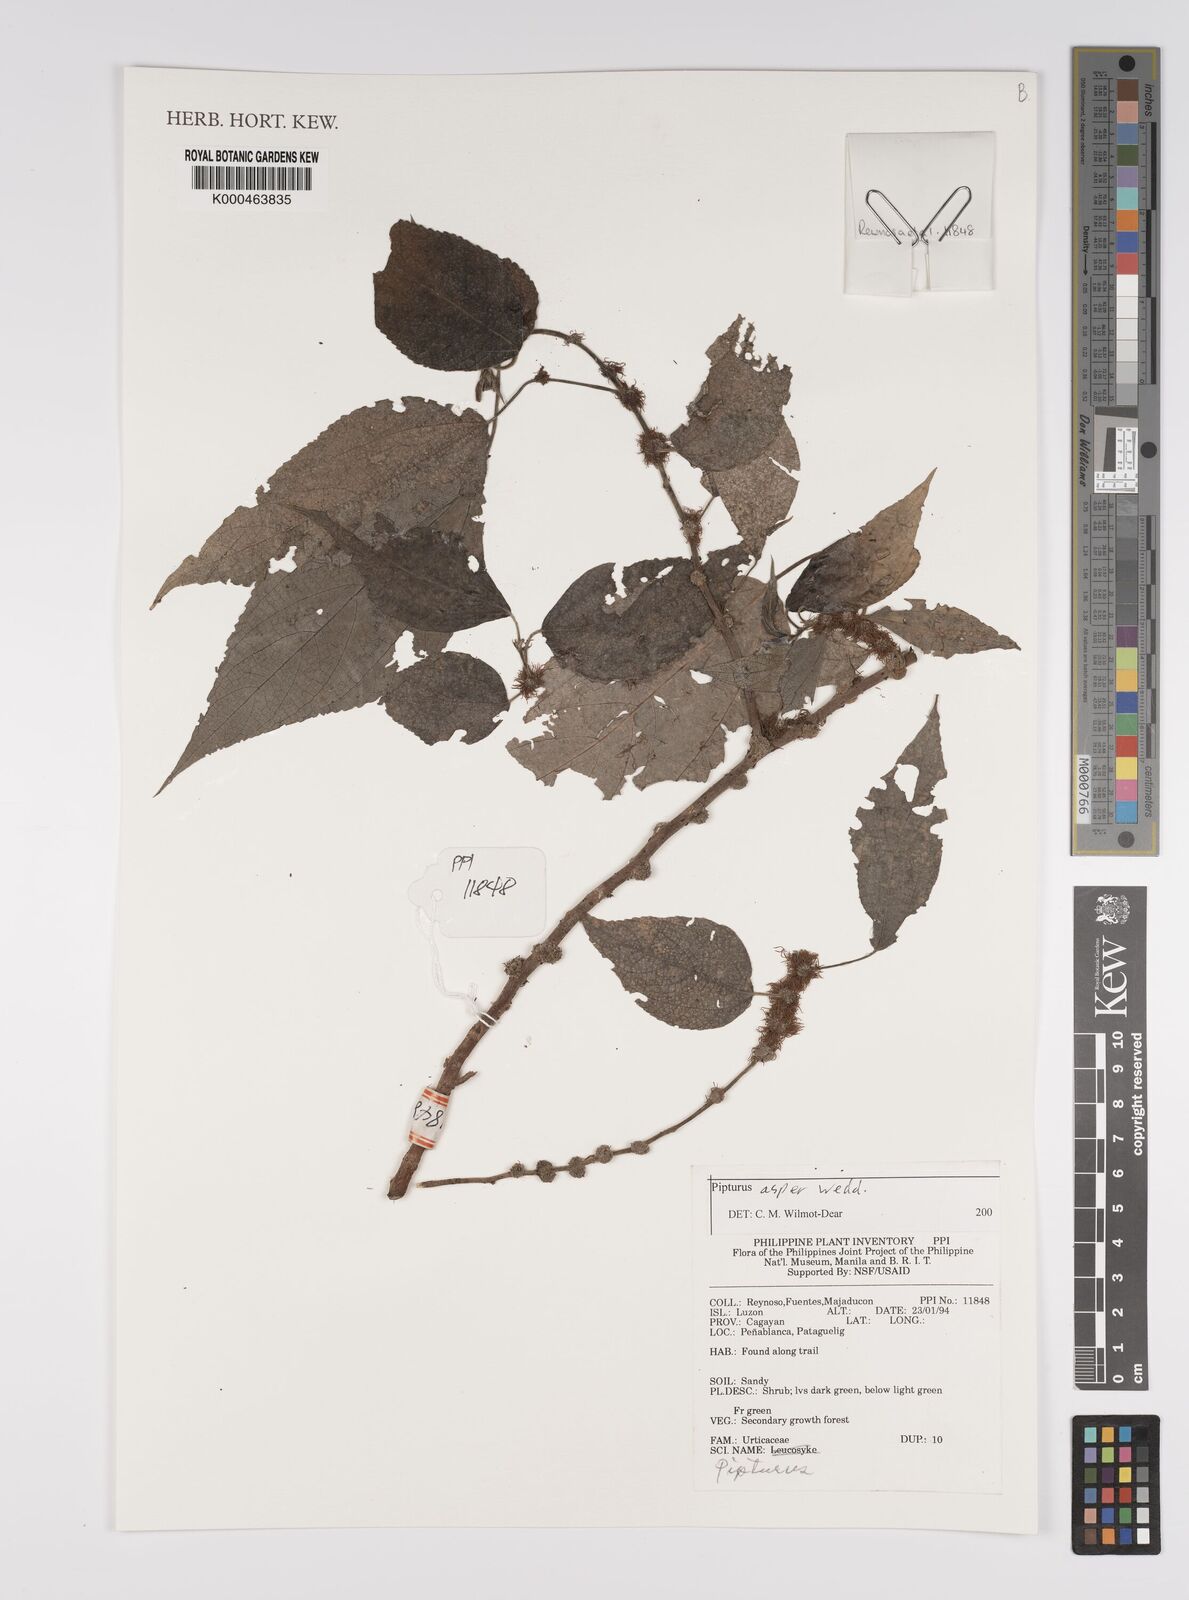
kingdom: Plantae
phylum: Tracheophyta
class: Magnoliopsida
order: Rosales
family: Urticaceae
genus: Pipturus
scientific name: Pipturus arborescens
